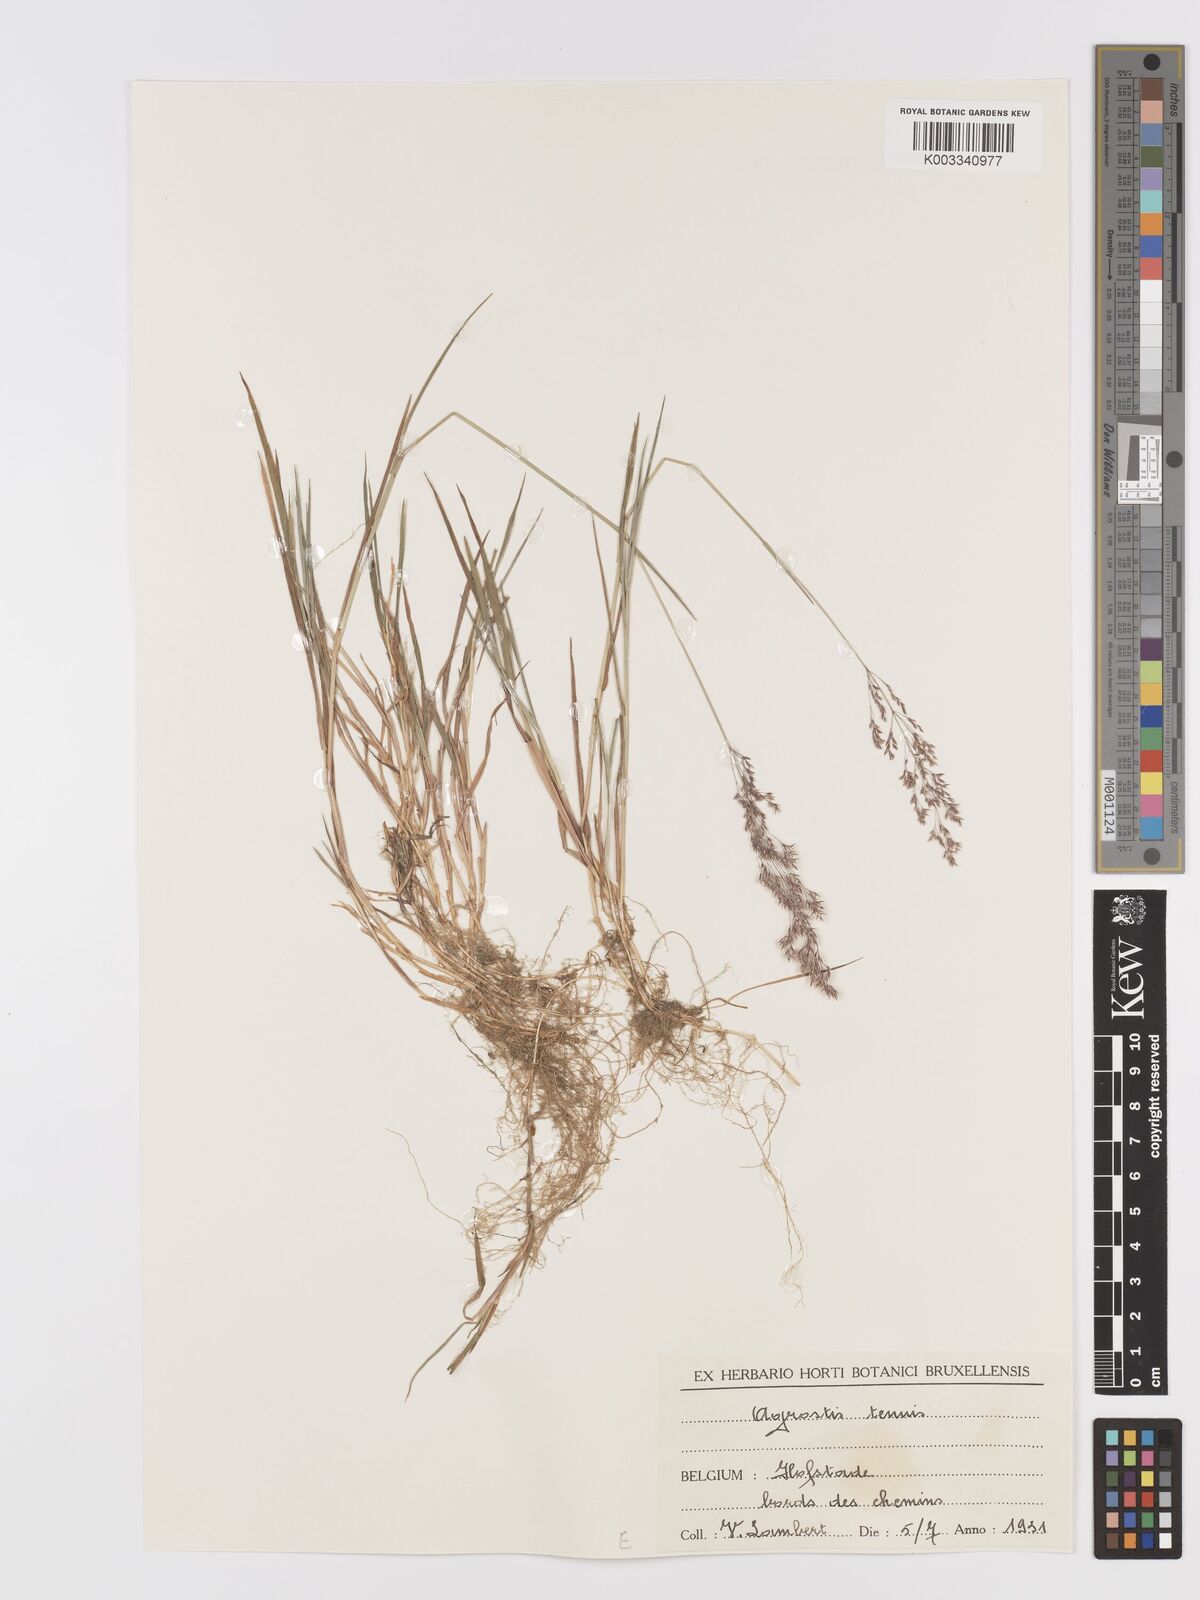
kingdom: Plantae
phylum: Tracheophyta
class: Liliopsida
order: Poales
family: Poaceae
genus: Agrostis
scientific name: Agrostis capillaris
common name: Colonial bentgrass
